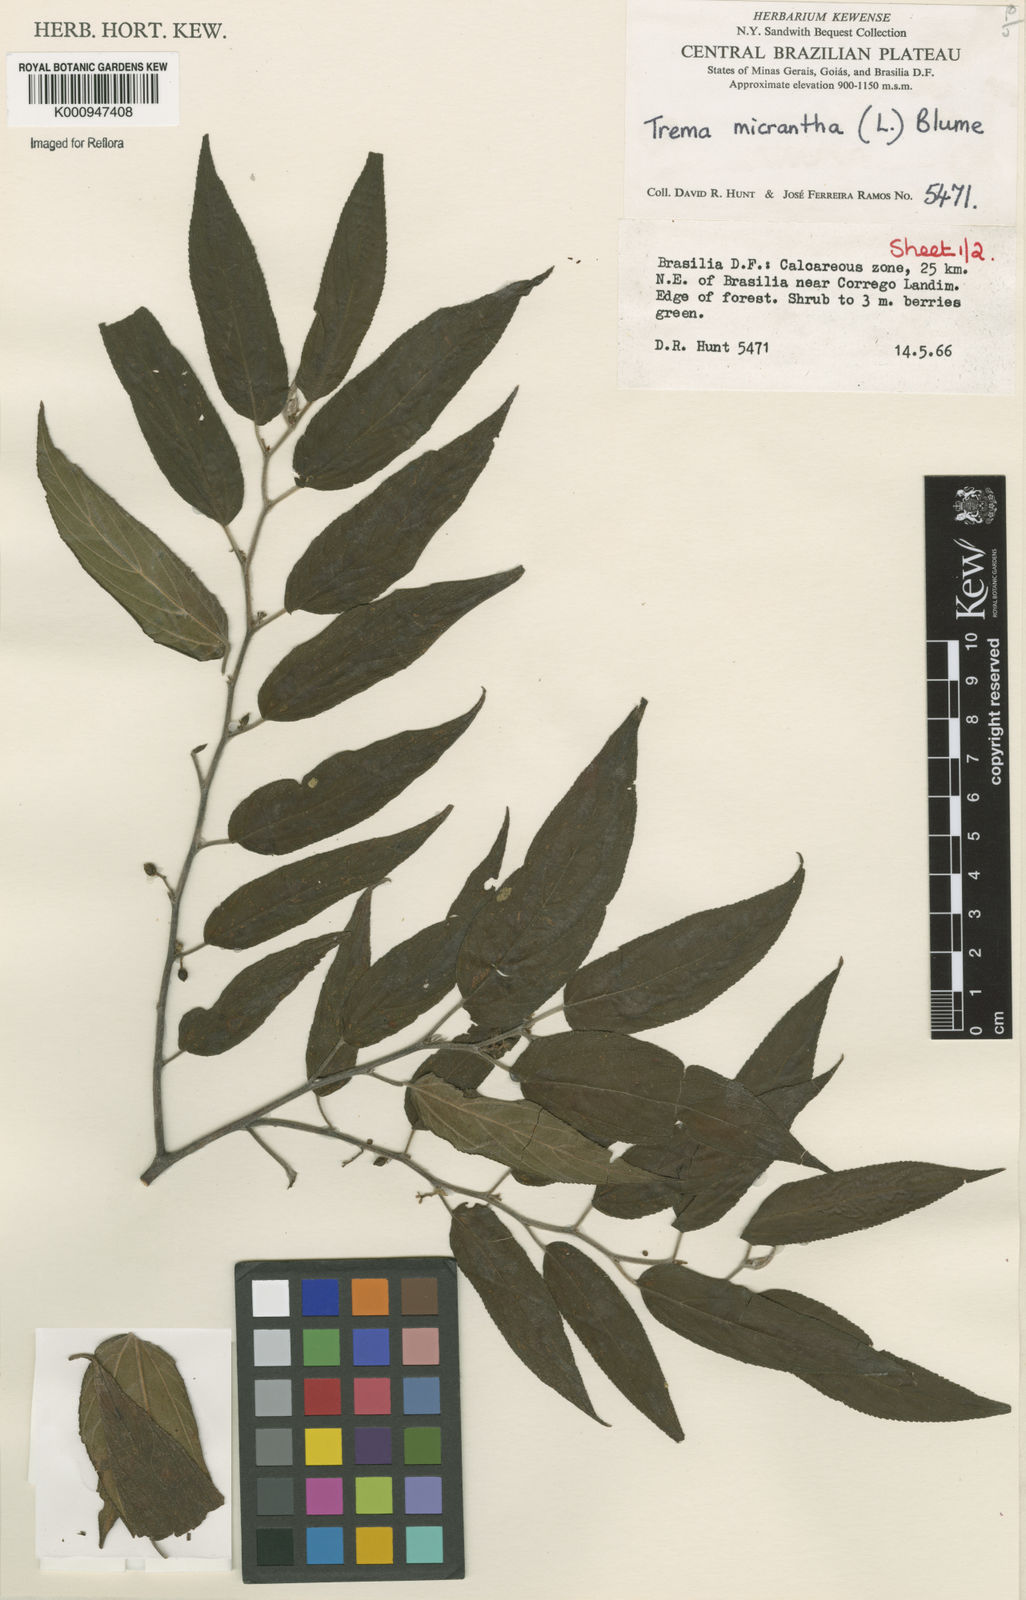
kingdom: Plantae
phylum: Tracheophyta
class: Magnoliopsida
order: Rosales
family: Cannabaceae
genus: Trema
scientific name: Trema micranthum
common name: Jamaican nettletree
